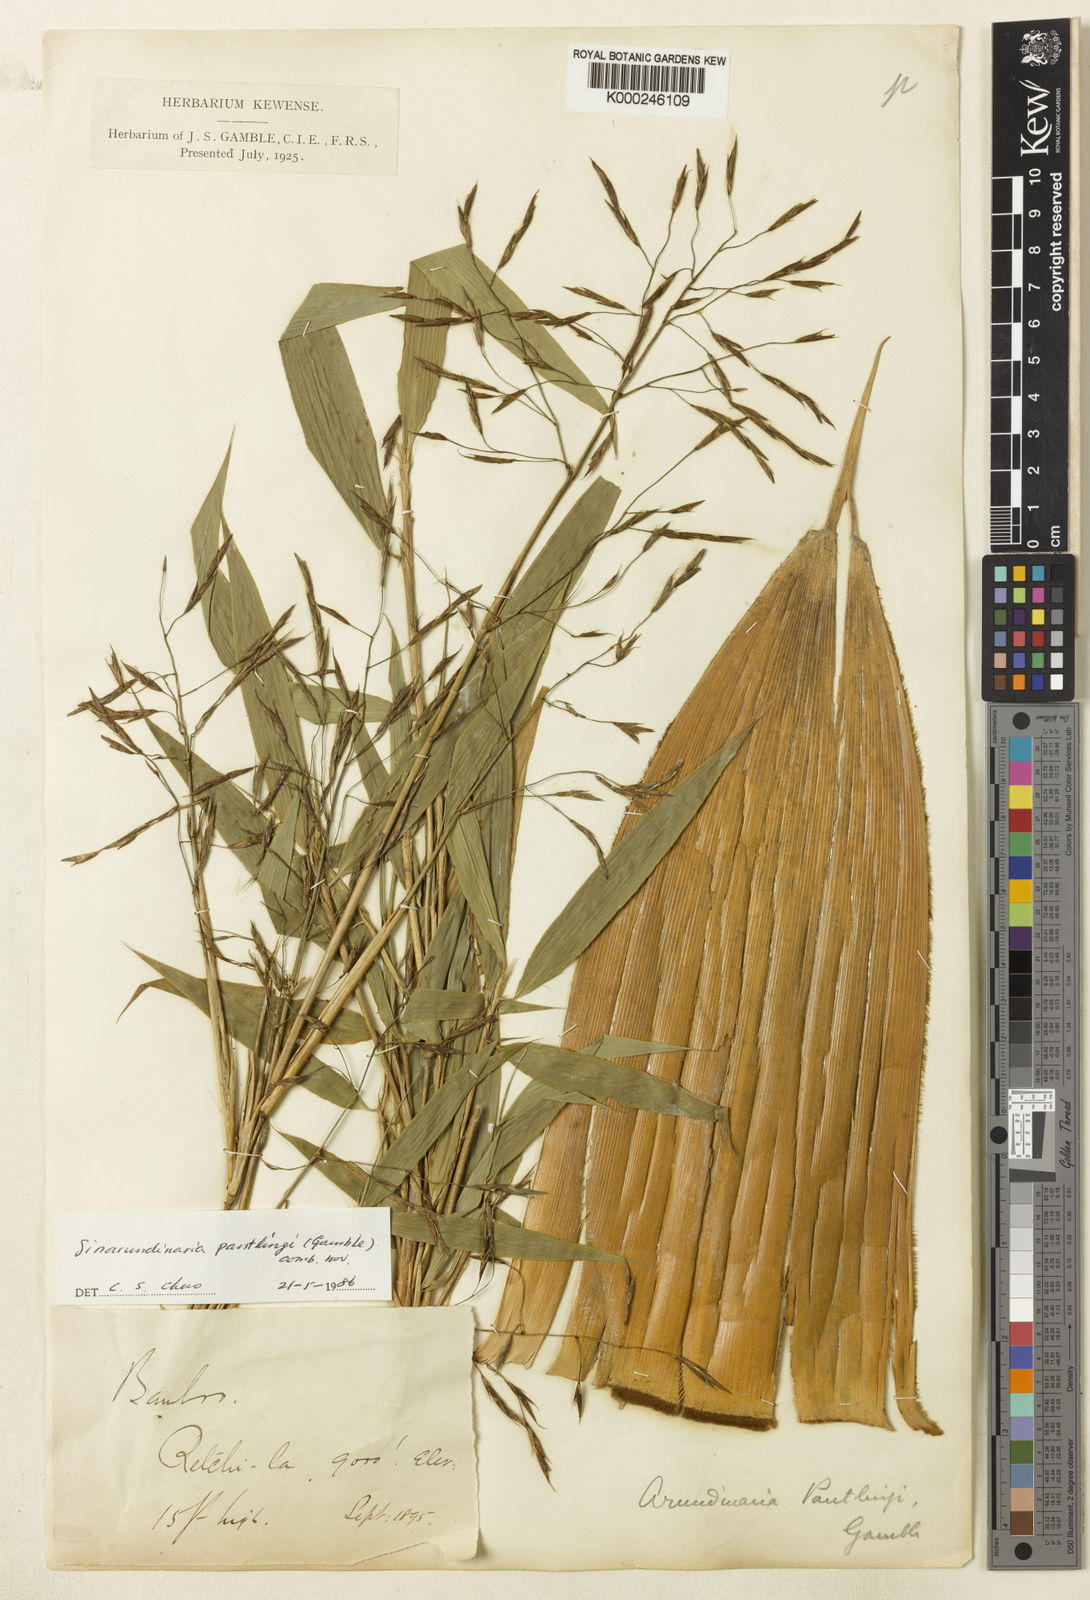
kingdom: Plantae
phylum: Tracheophyta
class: Liliopsida
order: Poales
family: Poaceae
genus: Yushania
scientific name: Yushania pantlingii
